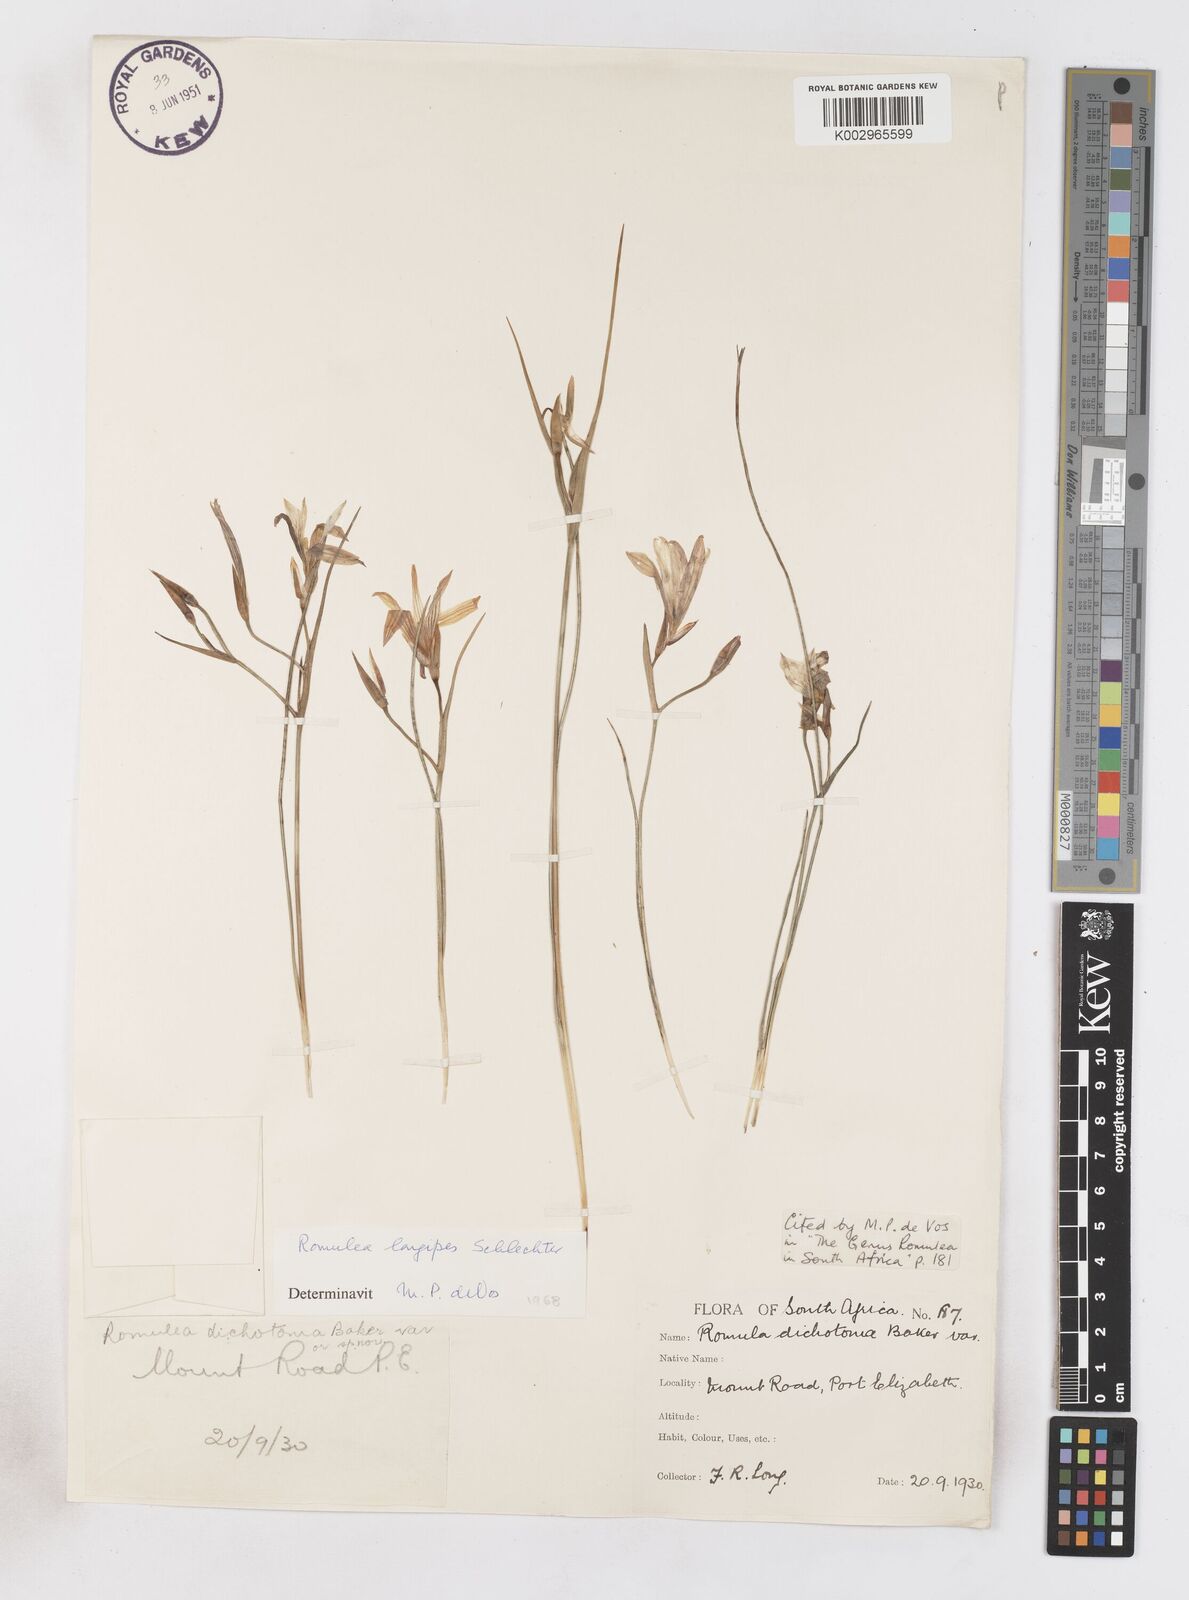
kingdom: Plantae
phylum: Tracheophyta
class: Liliopsida
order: Asparagales
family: Iridaceae
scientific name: Iridaceae
